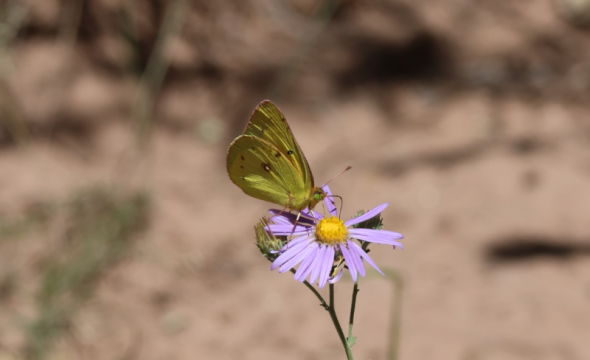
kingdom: Animalia
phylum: Arthropoda
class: Insecta
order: Lepidoptera
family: Pieridae
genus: Colias
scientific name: Colias eurytheme
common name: Orange Sulphur
